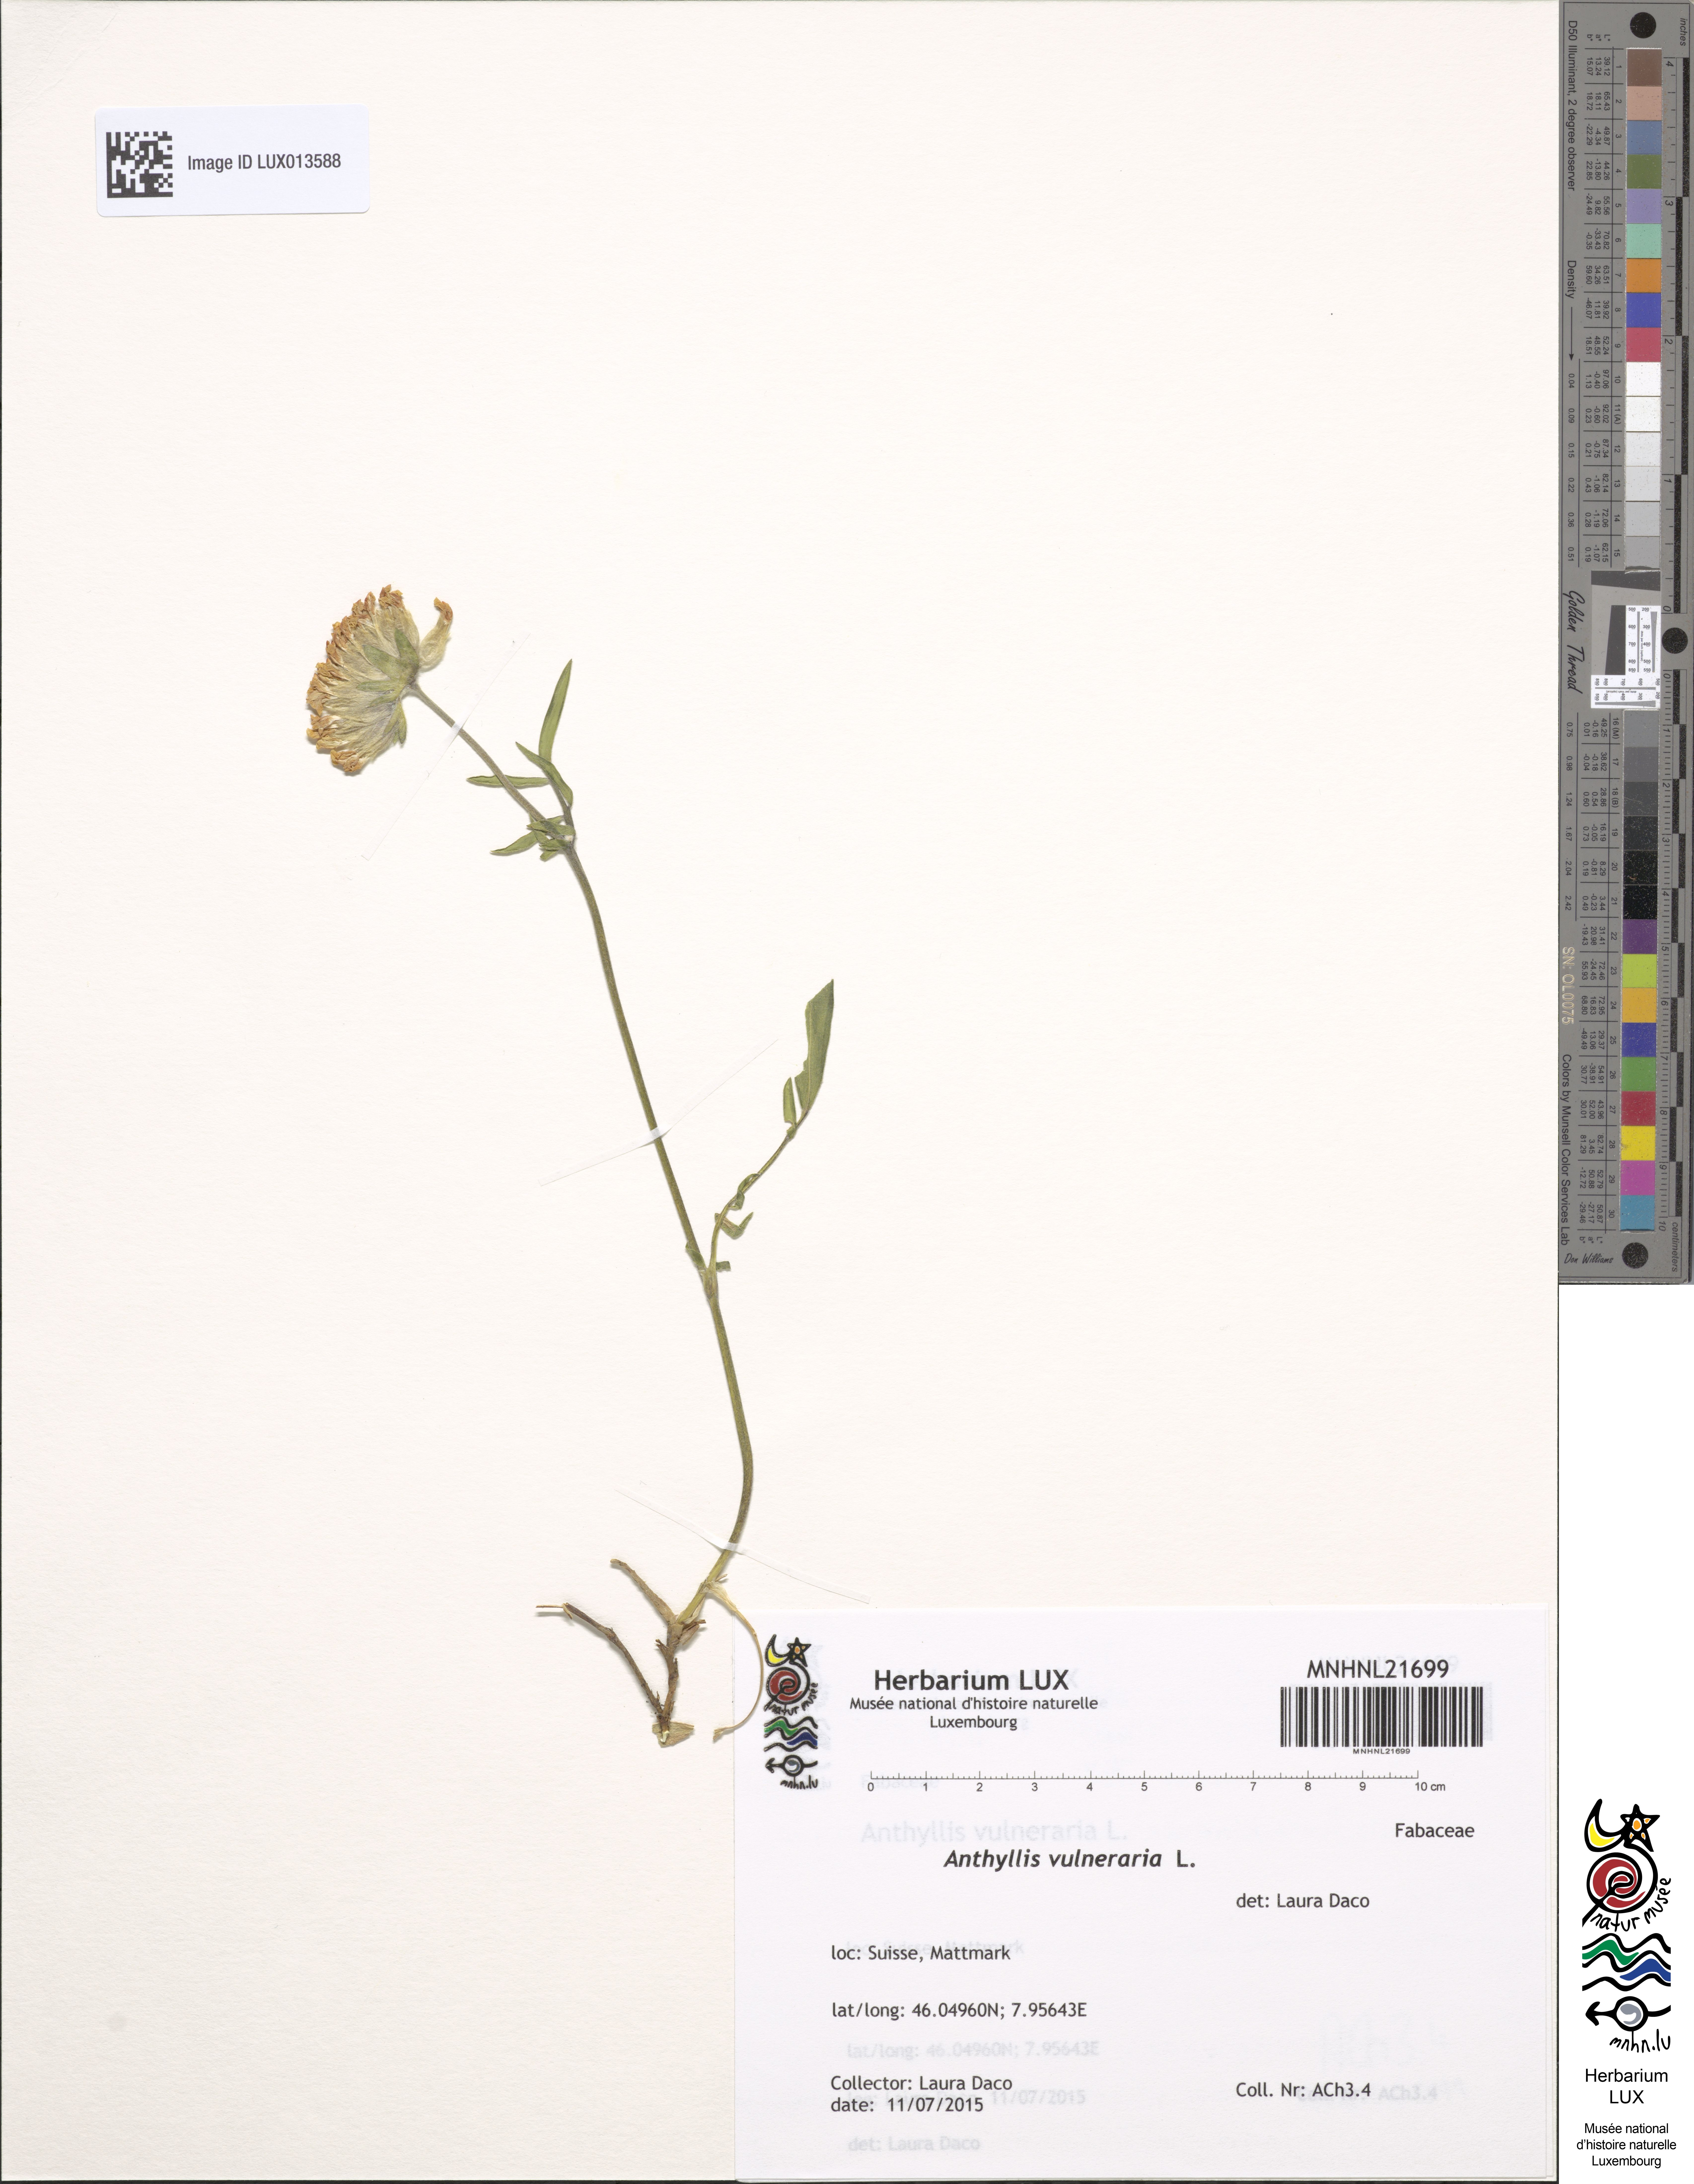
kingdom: Plantae
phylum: Tracheophyta
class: Magnoliopsida
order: Fabales
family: Fabaceae
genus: Anthyllis
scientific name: Anthyllis vulneraria
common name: Kidney vetch
